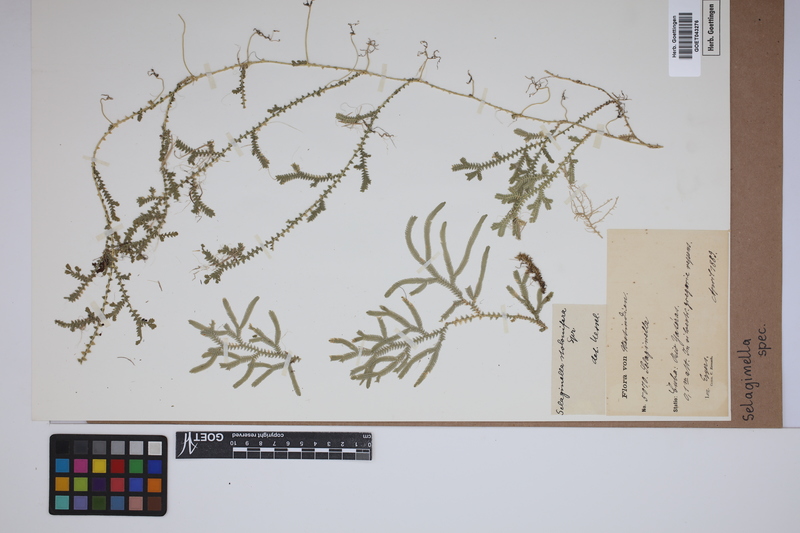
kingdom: Plantae
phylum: Tracheophyta
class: Lycopodiopsida
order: Selaginellales
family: Selaginellaceae
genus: Selaginella
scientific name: Selaginella
